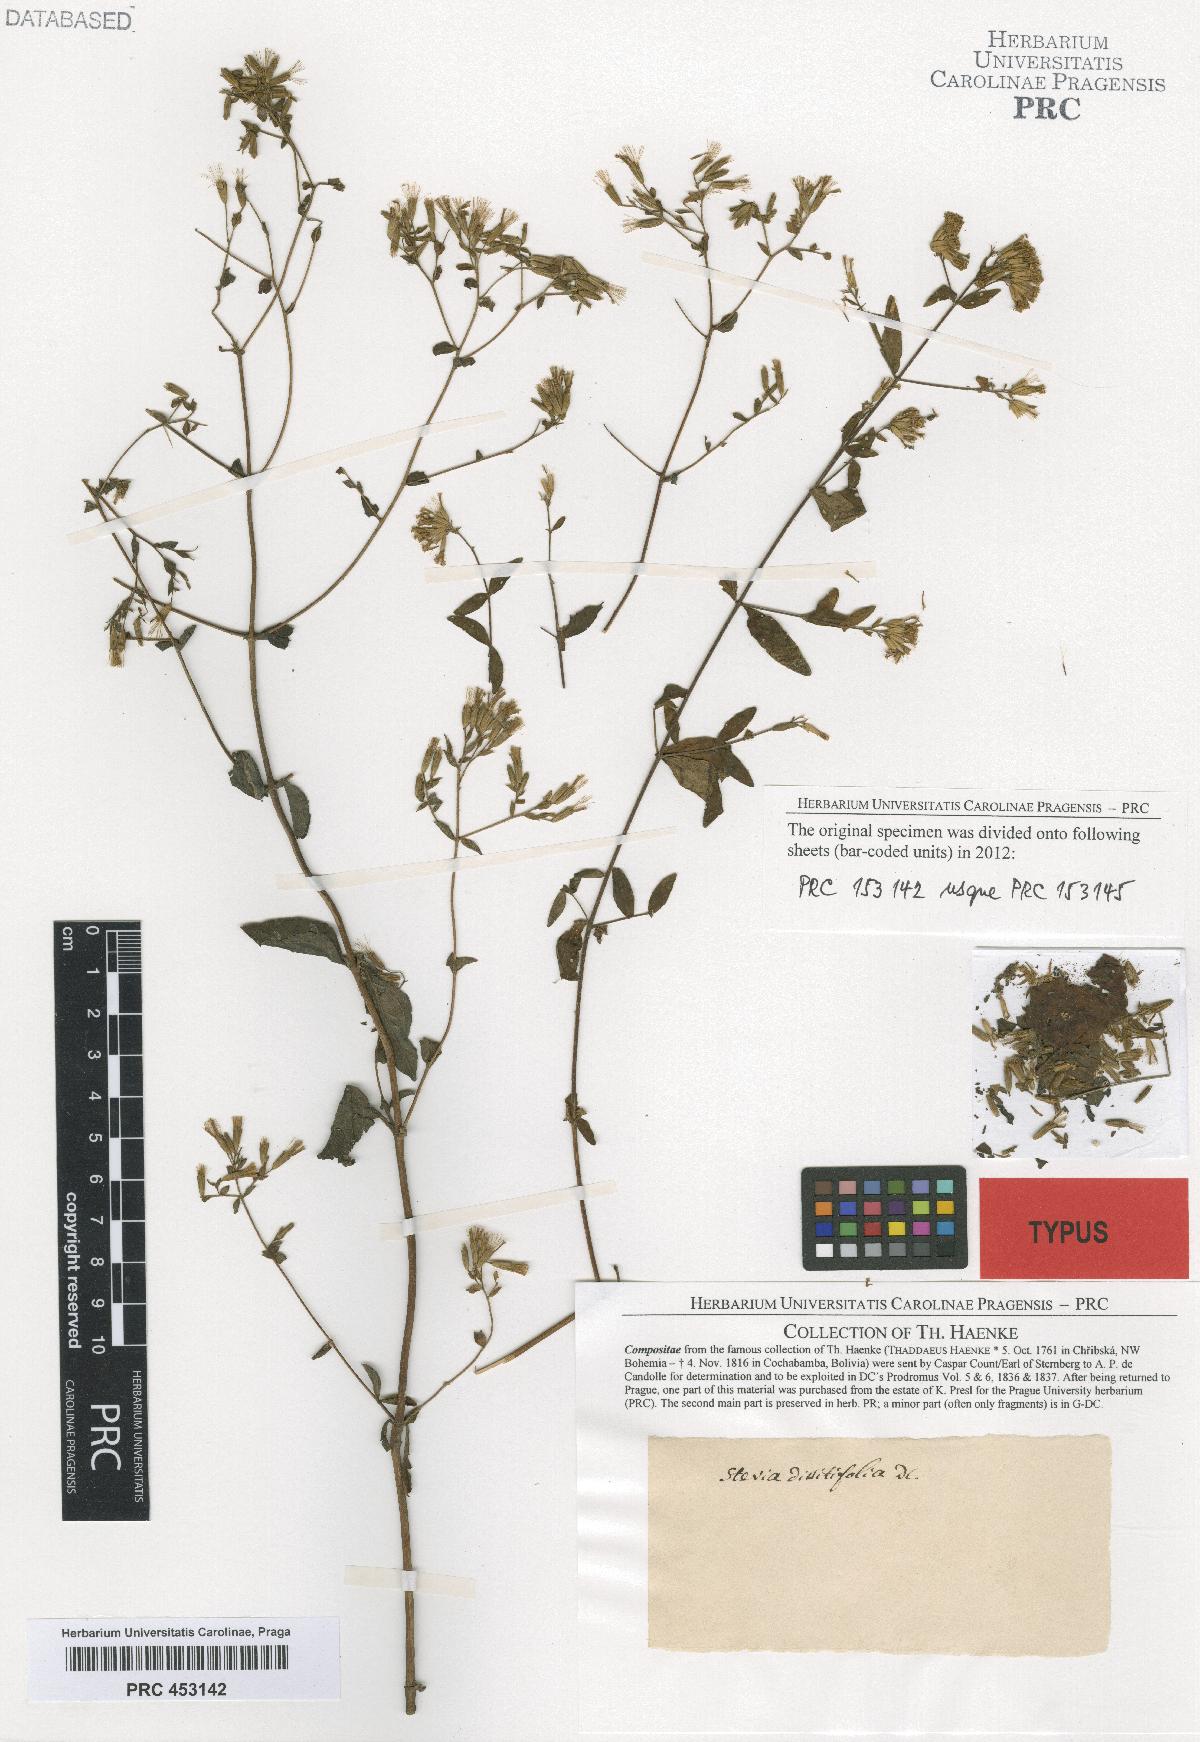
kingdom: Plantae
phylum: Tracheophyta
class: Magnoliopsida
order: Asterales
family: Asteraceae
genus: Stevia
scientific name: Stevia origanoides
